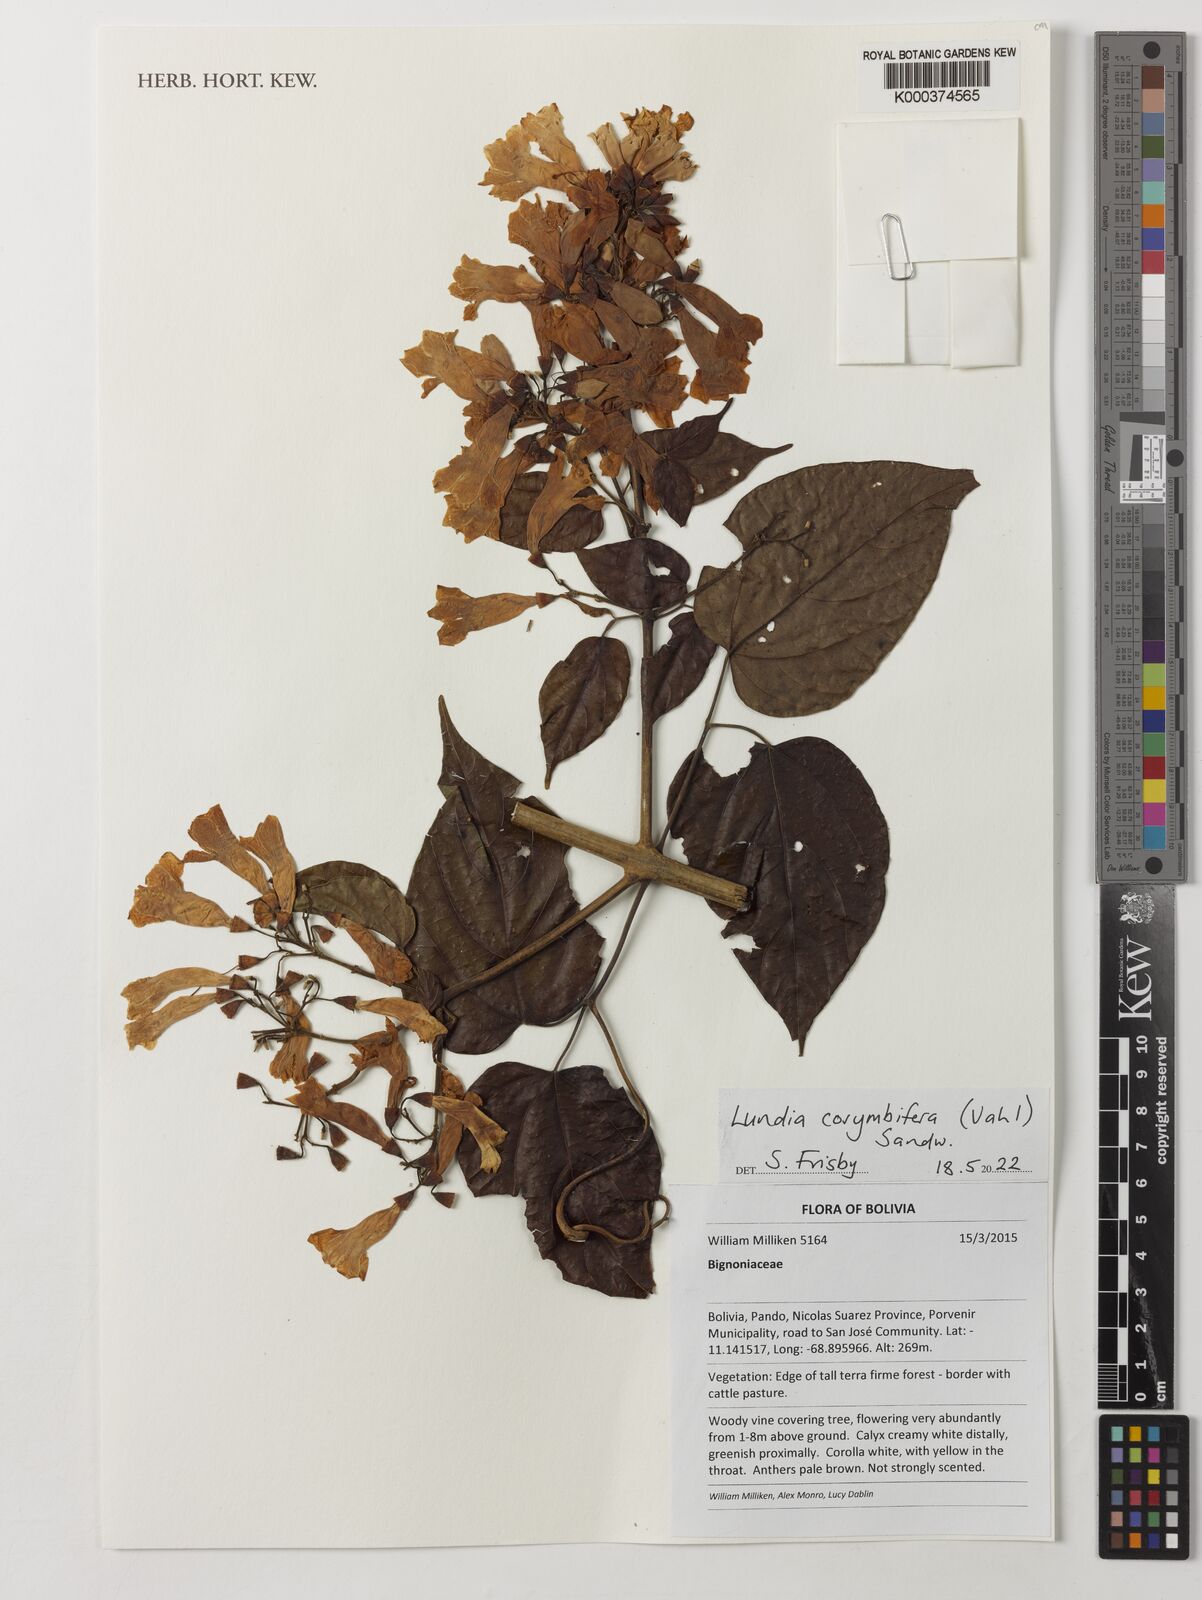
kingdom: Plantae
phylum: Tracheophyta
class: Magnoliopsida
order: Lamiales
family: Bignoniaceae
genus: Lundia
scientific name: Lundia corymbifera
